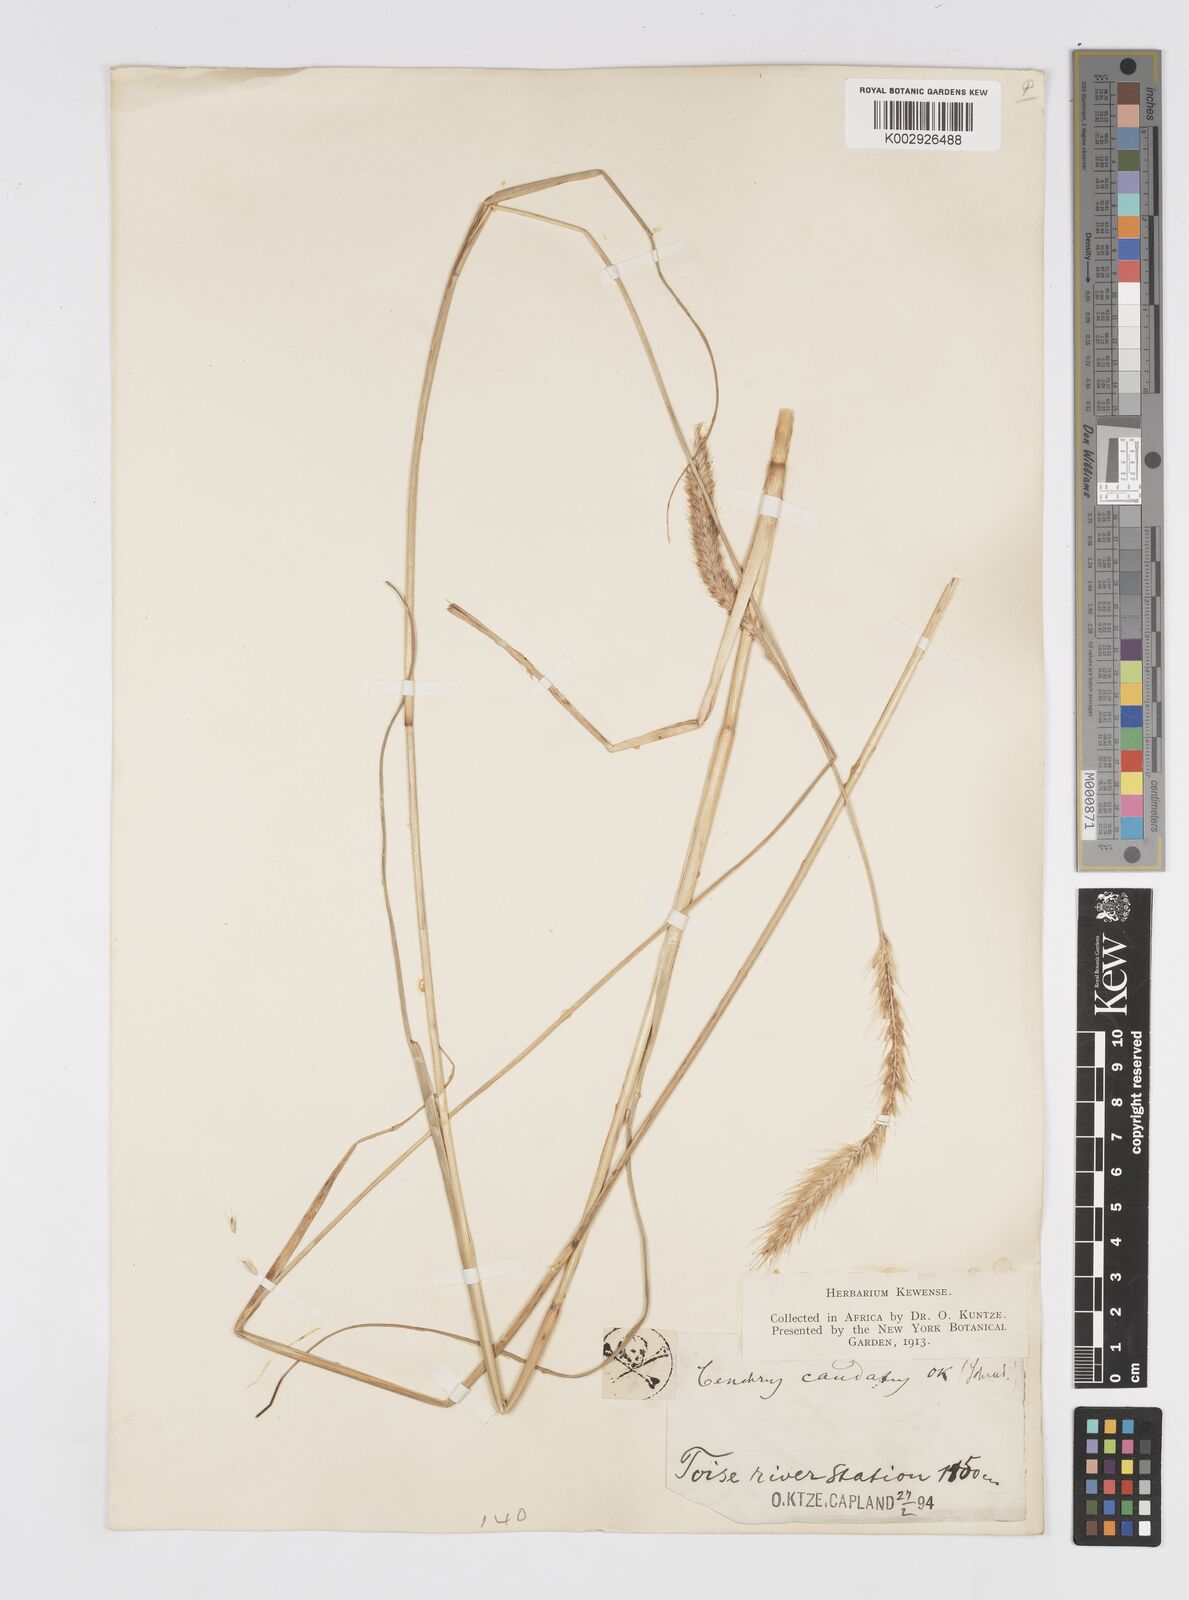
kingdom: Plantae
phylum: Tracheophyta
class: Liliopsida
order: Poales
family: Poaceae
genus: Cenchrus
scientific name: Cenchrus caudatus
